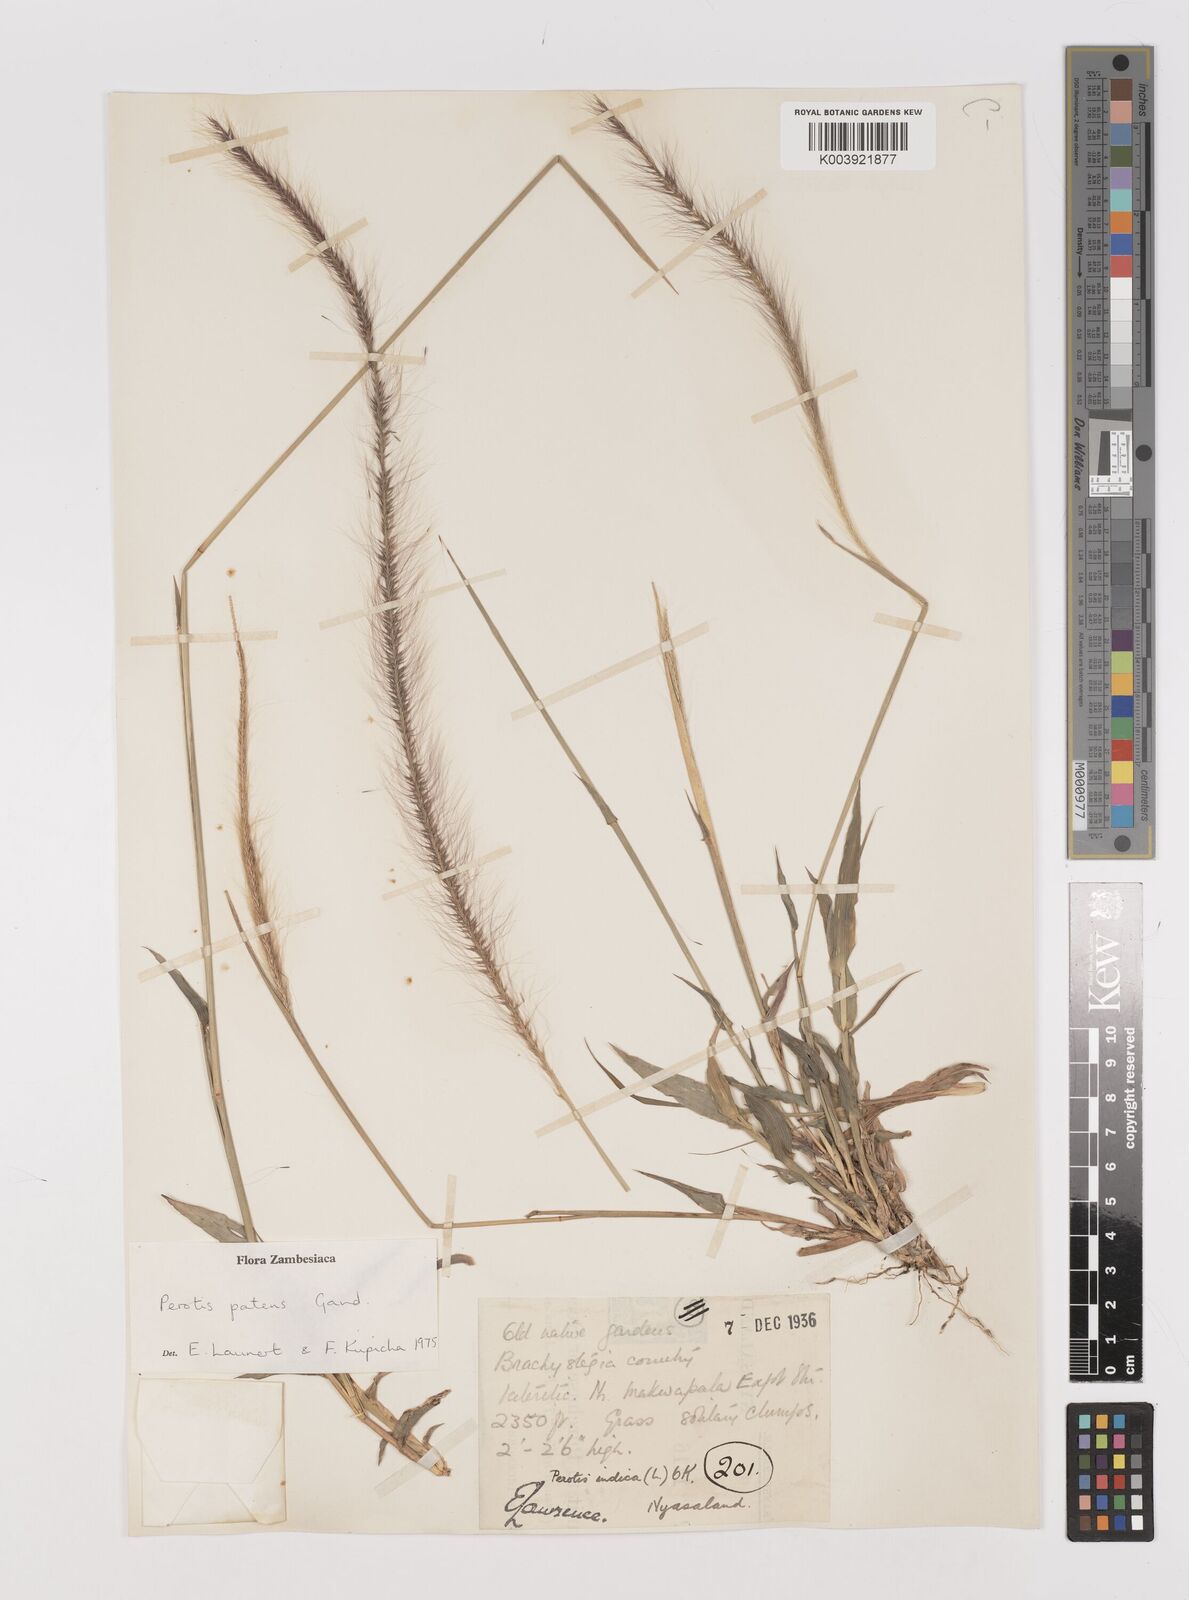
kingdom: Plantae
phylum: Tracheophyta
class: Liliopsida
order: Poales
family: Poaceae
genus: Perotis
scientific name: Perotis patens
